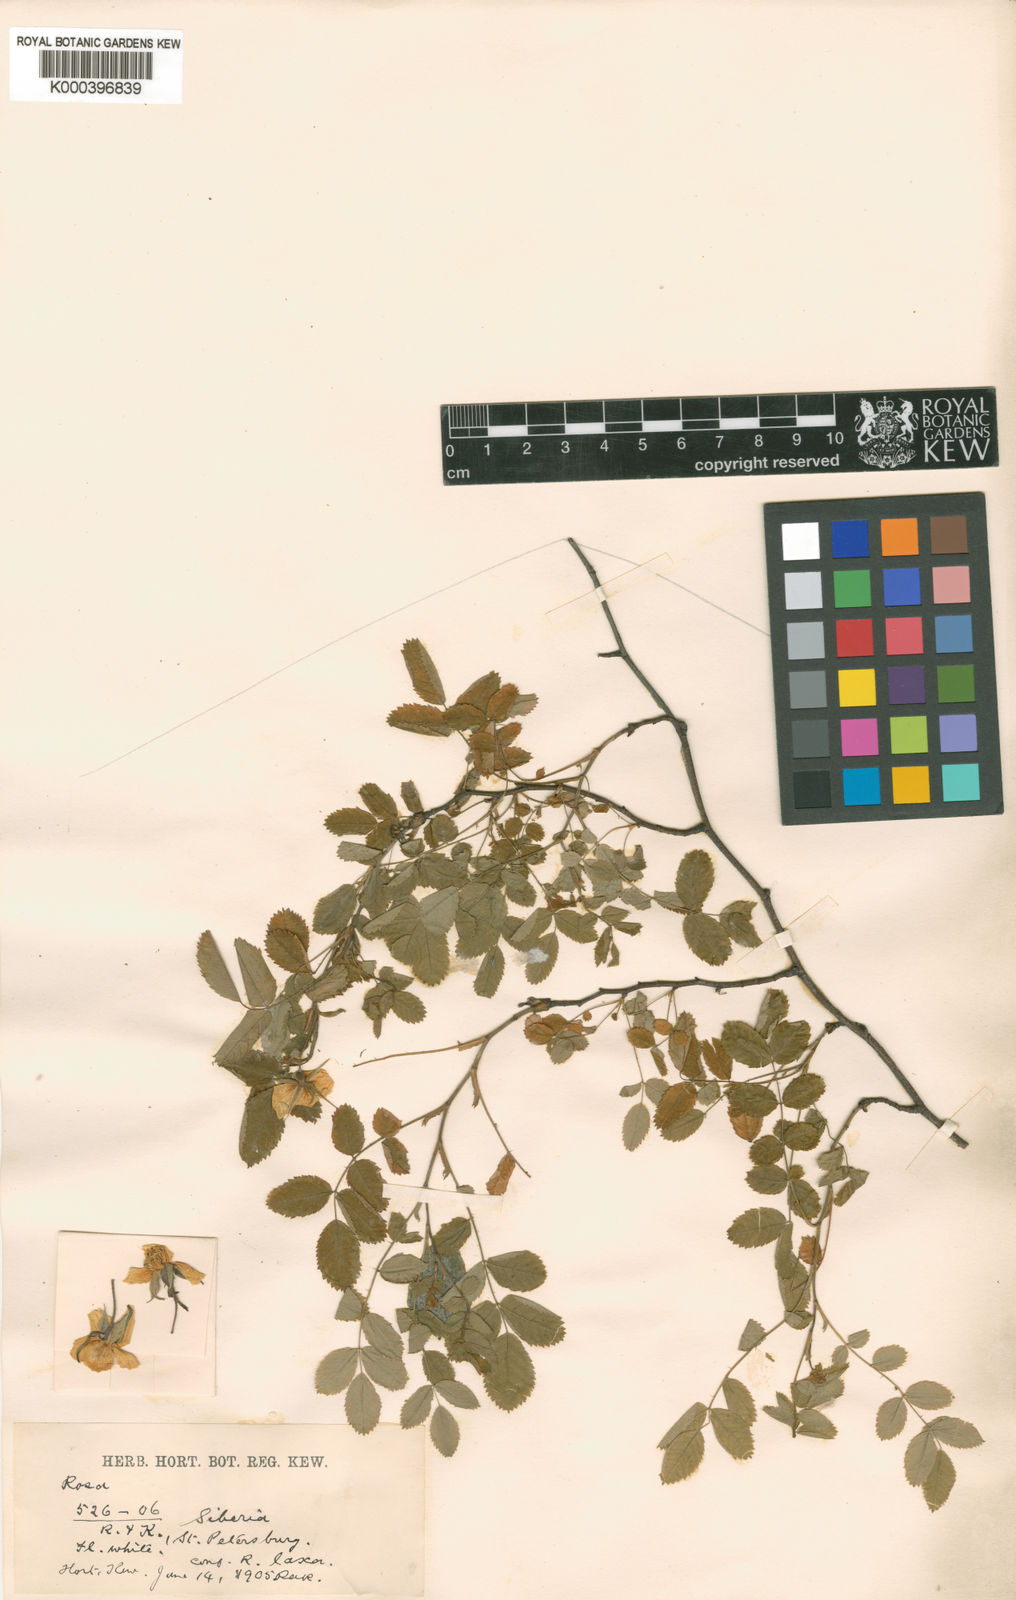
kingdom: Plantae
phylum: Tracheophyta
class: Magnoliopsida
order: Rosales
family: Rosaceae
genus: Rosa
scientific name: Rosa beggeriana
